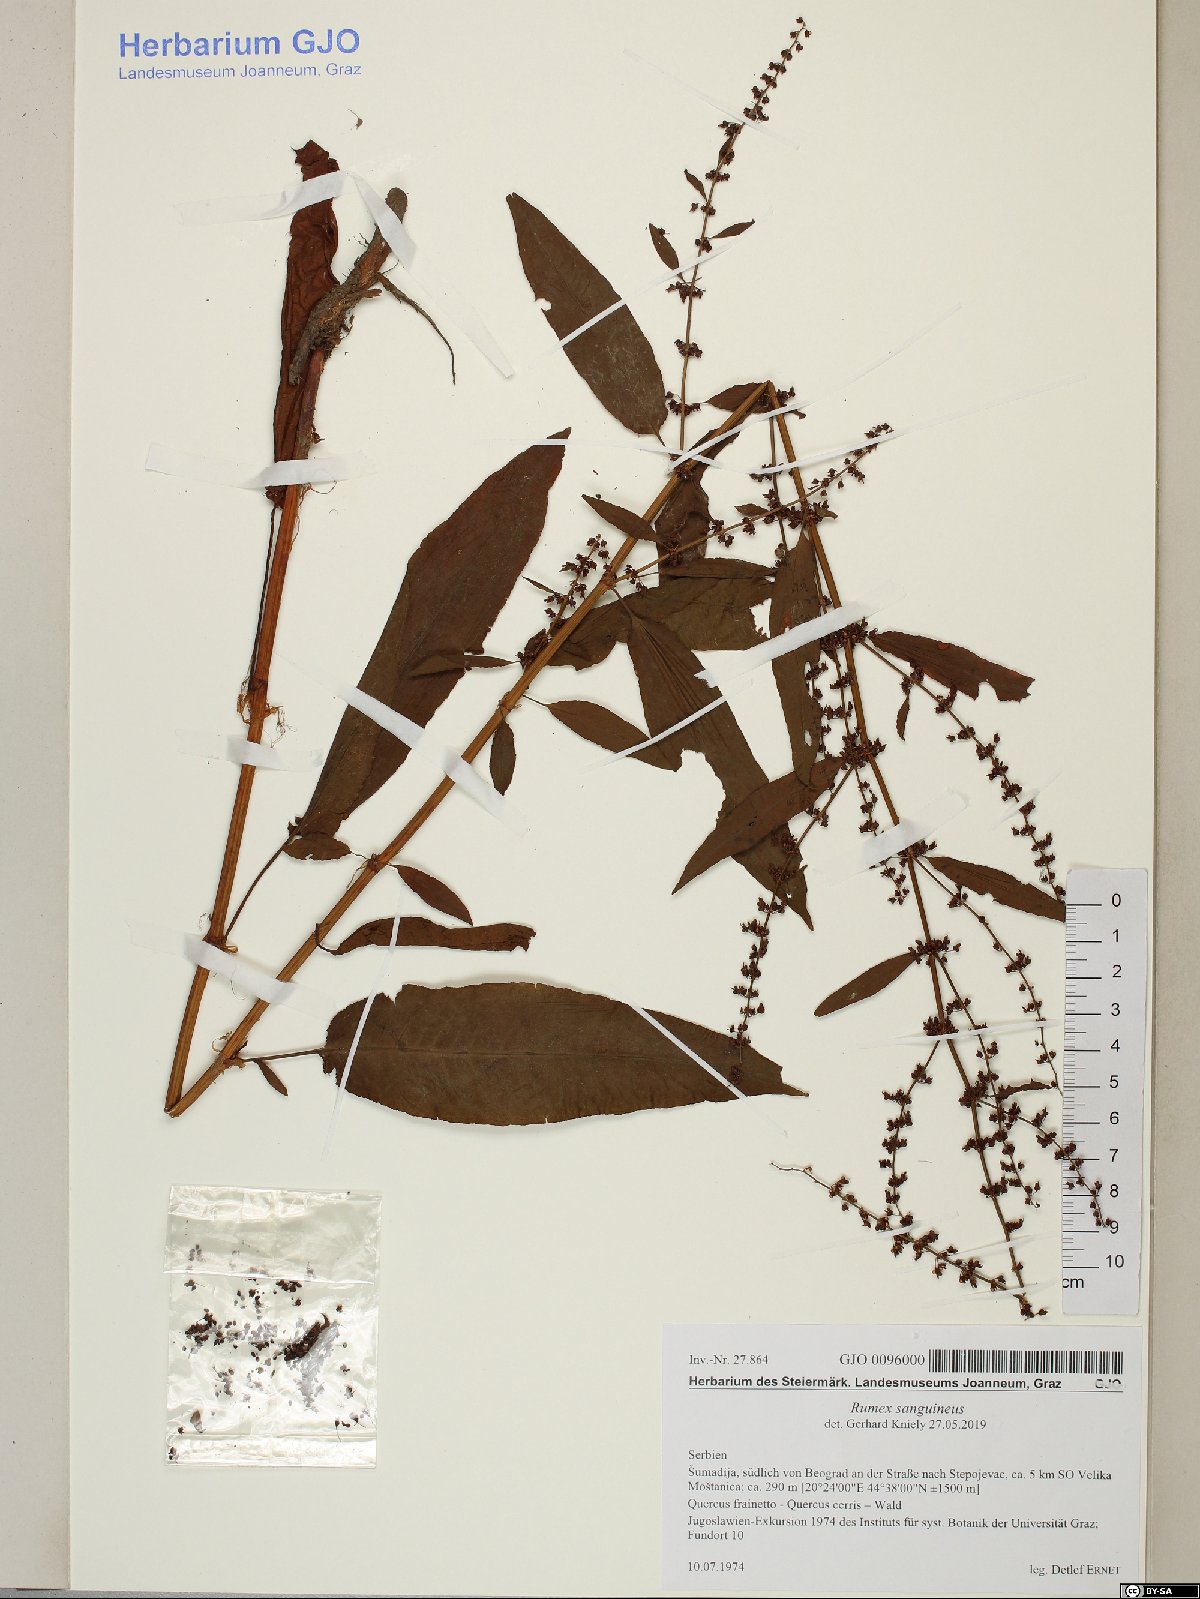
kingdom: Plantae
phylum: Tracheophyta
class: Magnoliopsida
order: Caryophyllales
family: Polygonaceae
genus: Rumex
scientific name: Rumex sanguineus
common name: Wood dock
